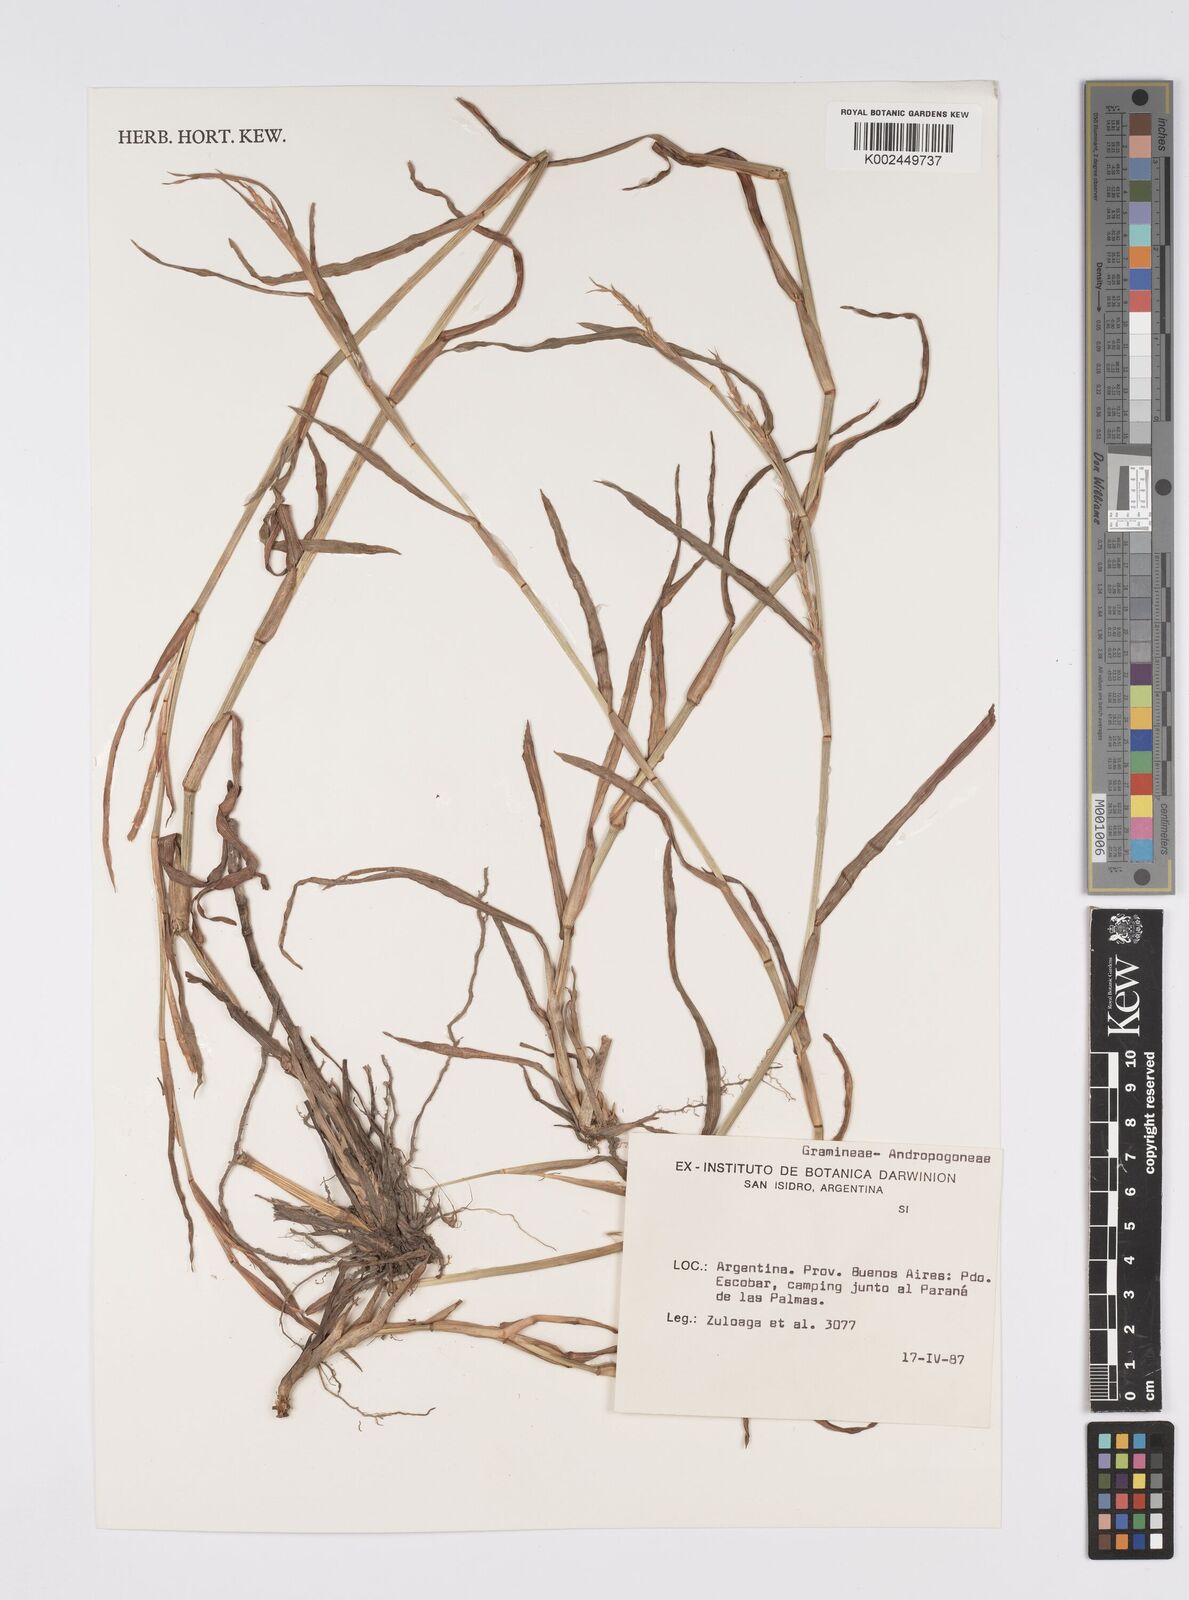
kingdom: Plantae
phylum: Tracheophyta
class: Liliopsida
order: Poales
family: Poaceae
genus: Hemarthria
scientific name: Hemarthria altissima
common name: African jointgrass
